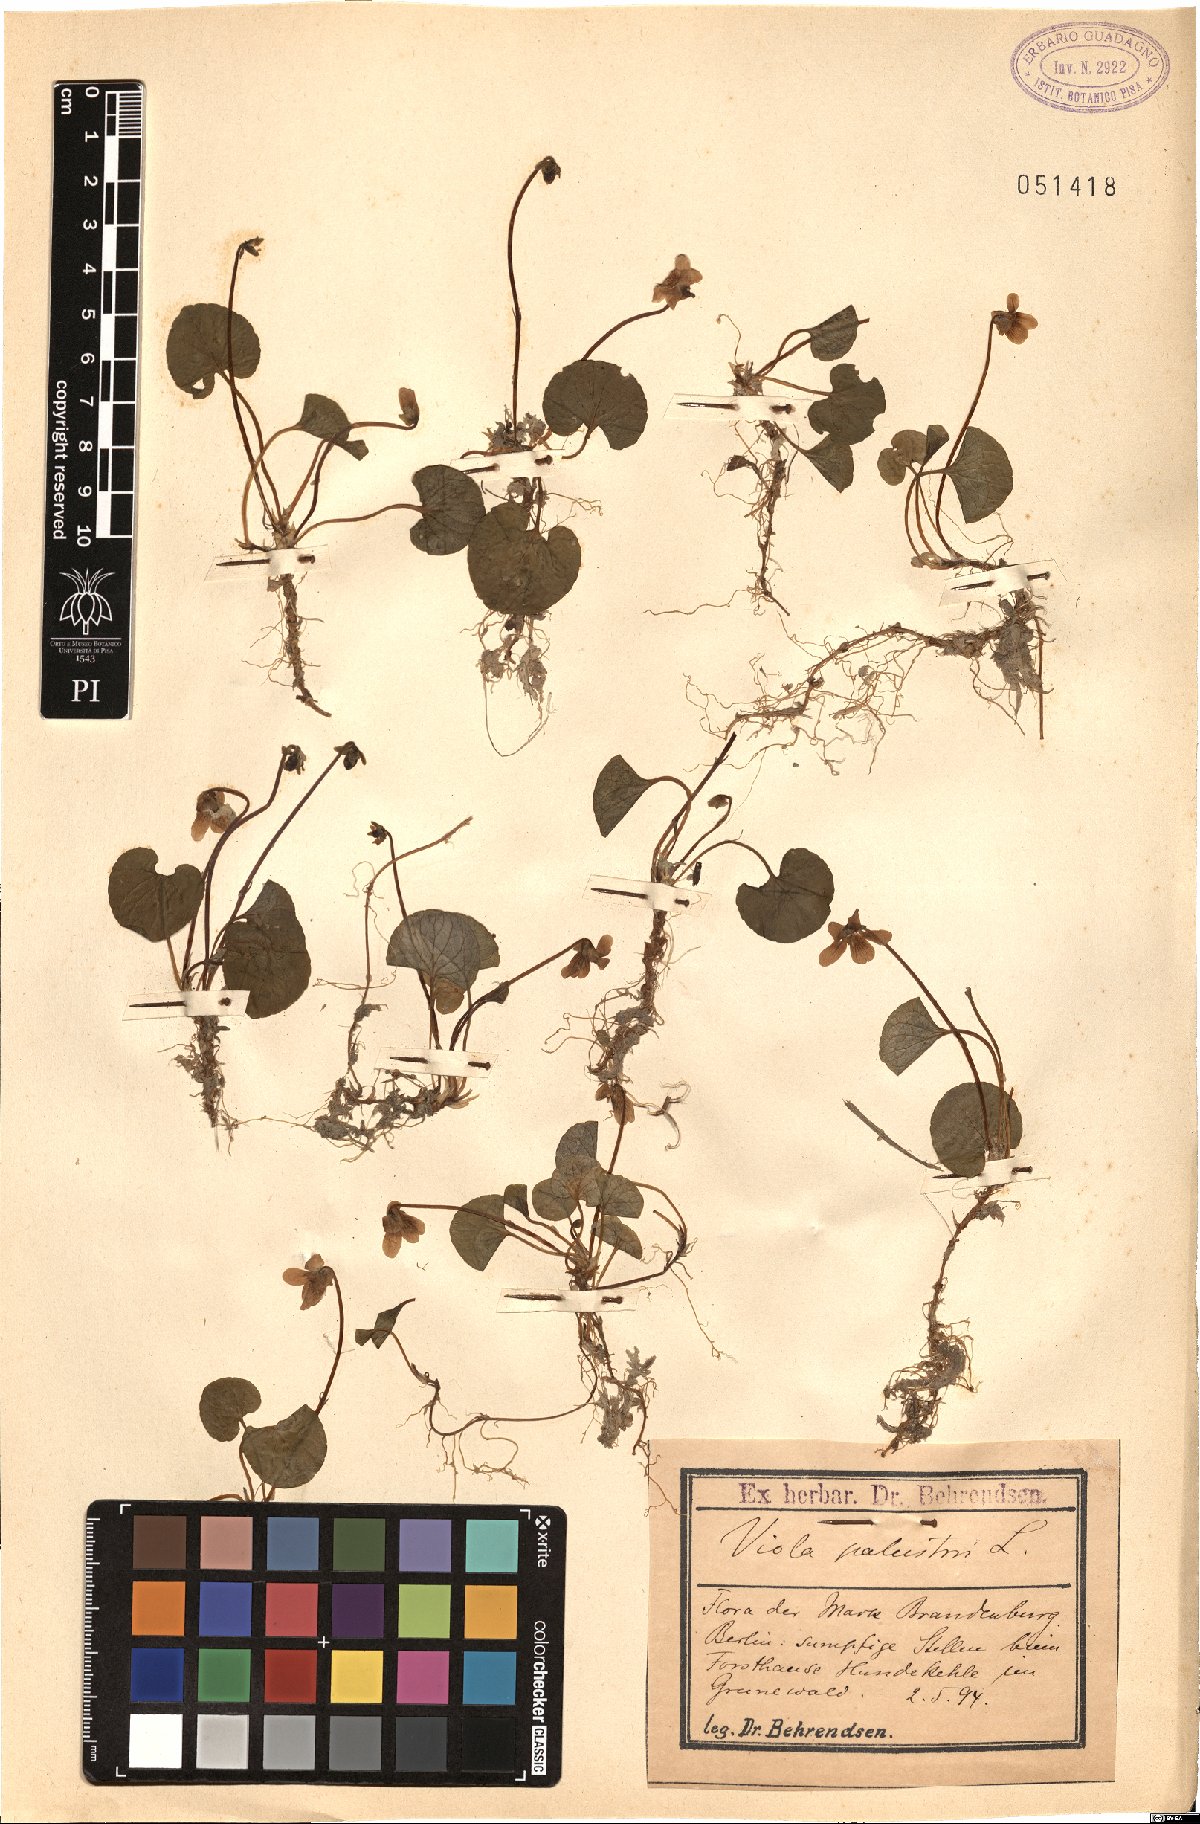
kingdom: Plantae
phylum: Tracheophyta
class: Magnoliopsida
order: Malpighiales
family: Violaceae
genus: Viola
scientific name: Viola palustris
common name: Marsh violet
